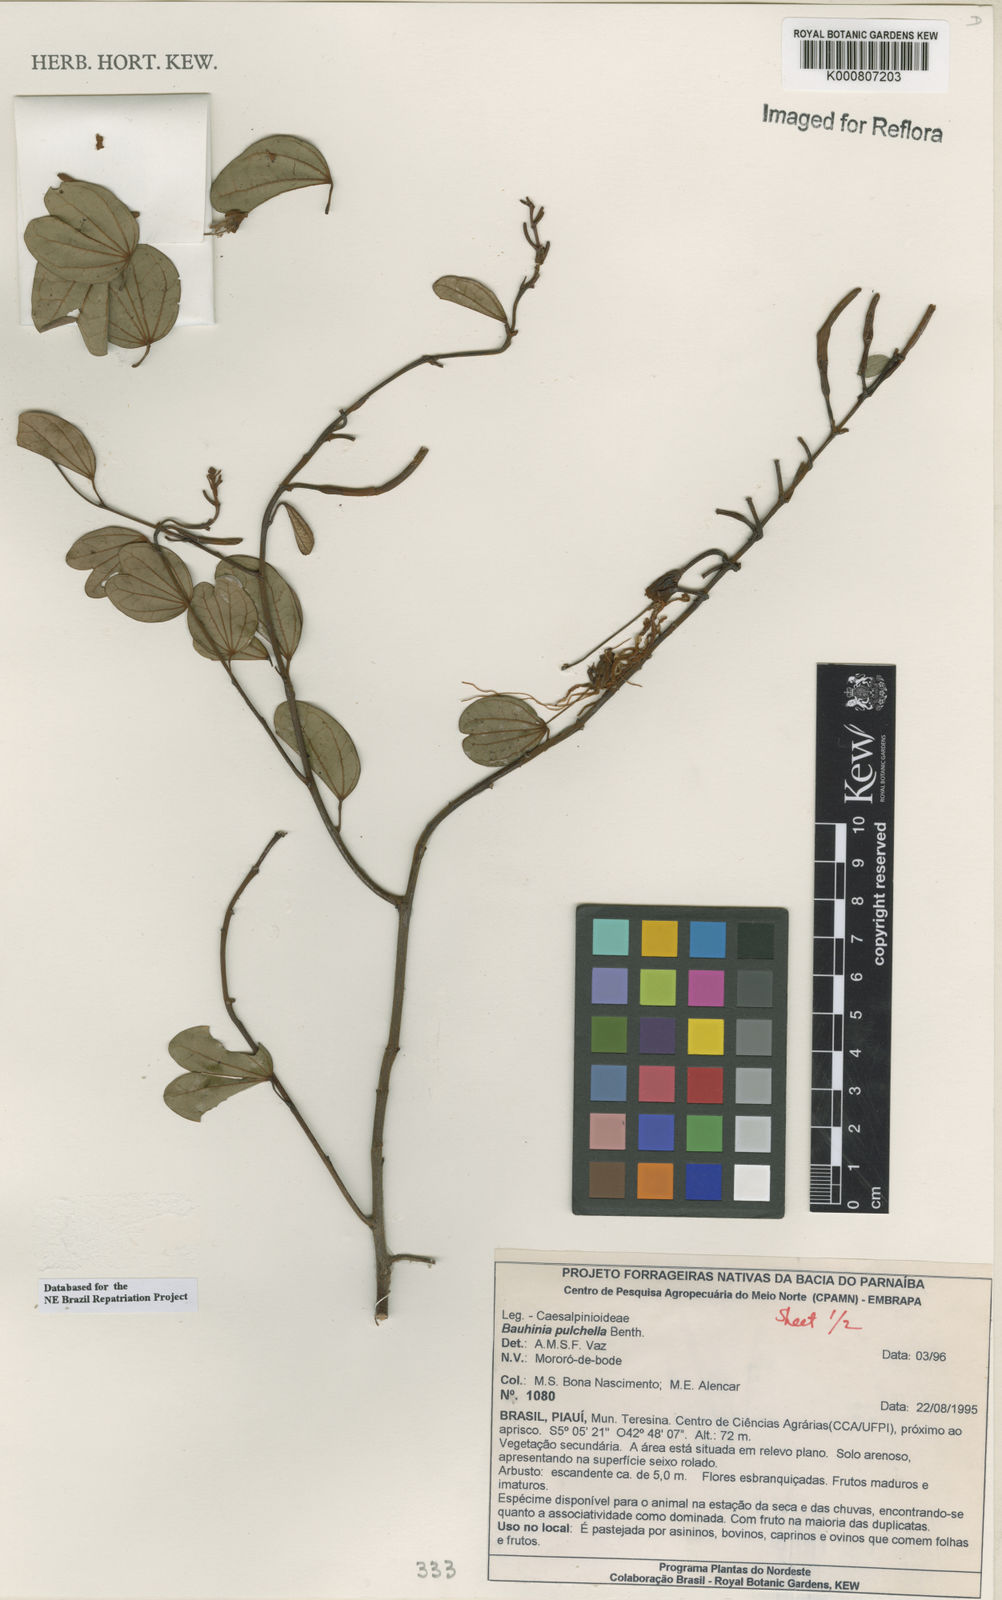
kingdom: Plantae
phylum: Tracheophyta
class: Magnoliopsida
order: Fabales
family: Fabaceae
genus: Bauhinia
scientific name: Bauhinia pulchella
